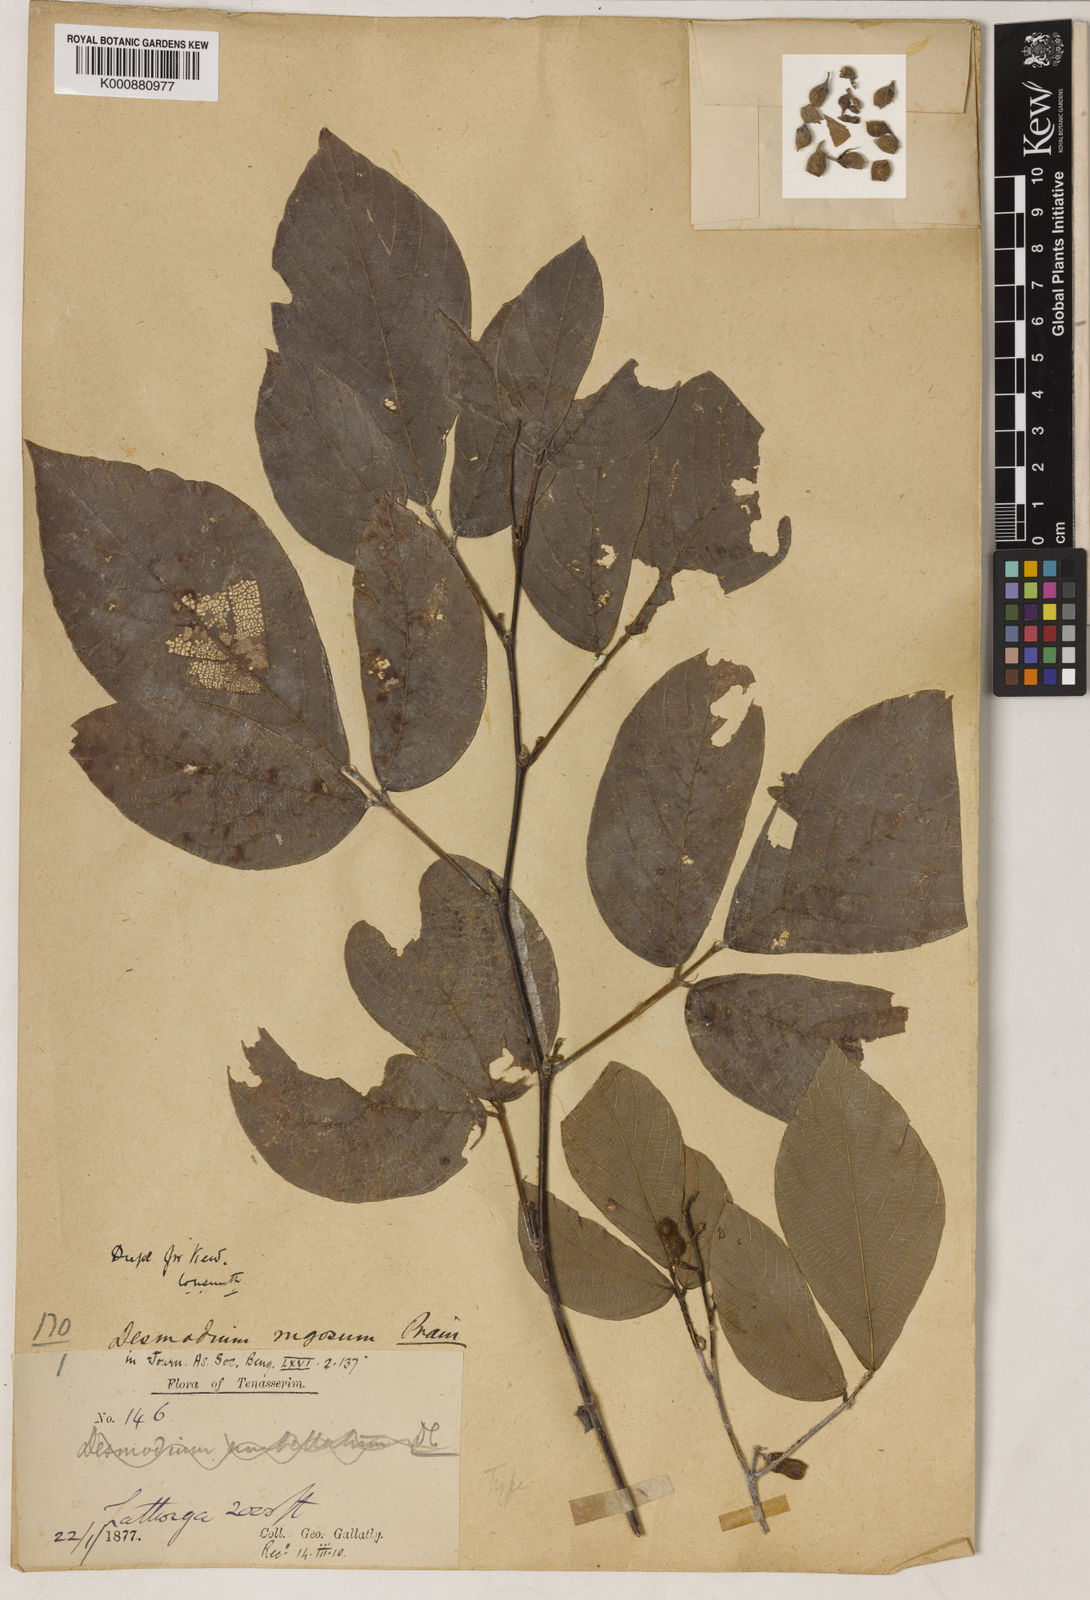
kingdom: Plantae
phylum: Tracheophyta
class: Magnoliopsida
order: Fabales
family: Fabaceae
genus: Dendrolobium
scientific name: Dendrolobium rugosum
